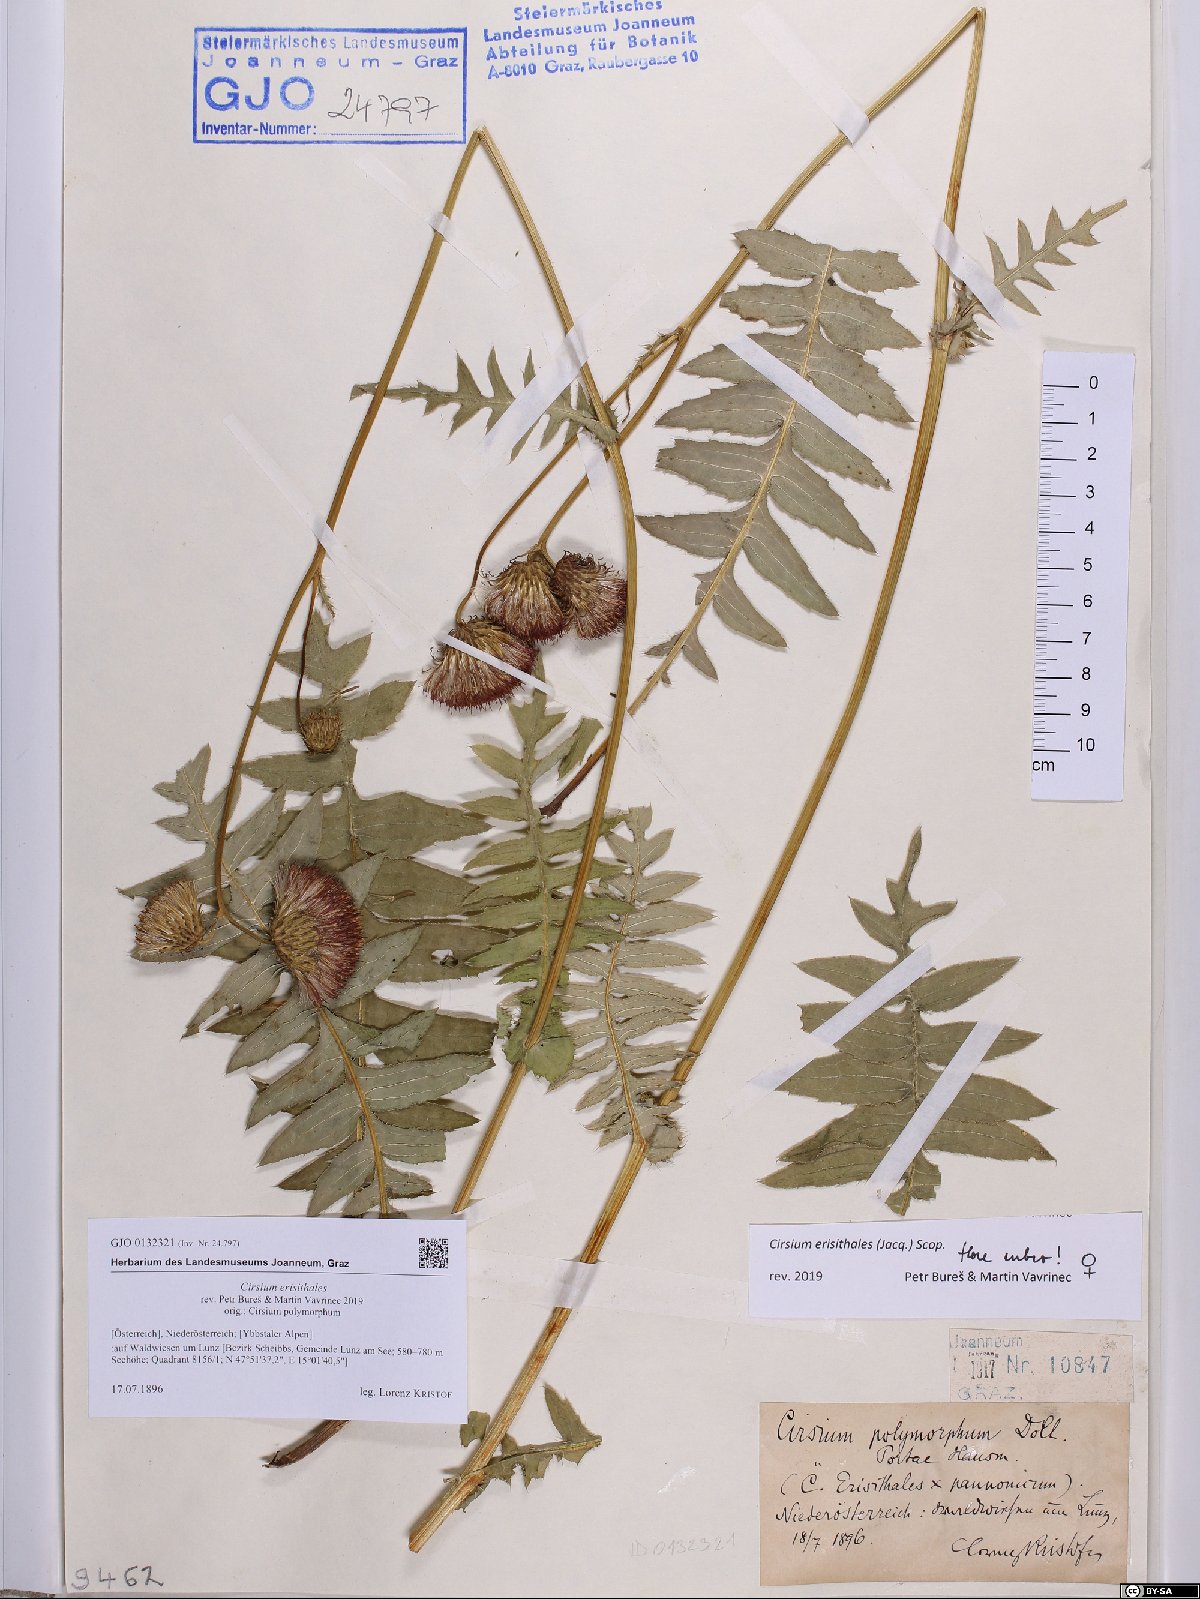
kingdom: Plantae
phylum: Tracheophyta
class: Magnoliopsida
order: Asterales
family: Asteraceae
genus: Cirsium
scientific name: Cirsium erisithales
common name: Yellow thistle
